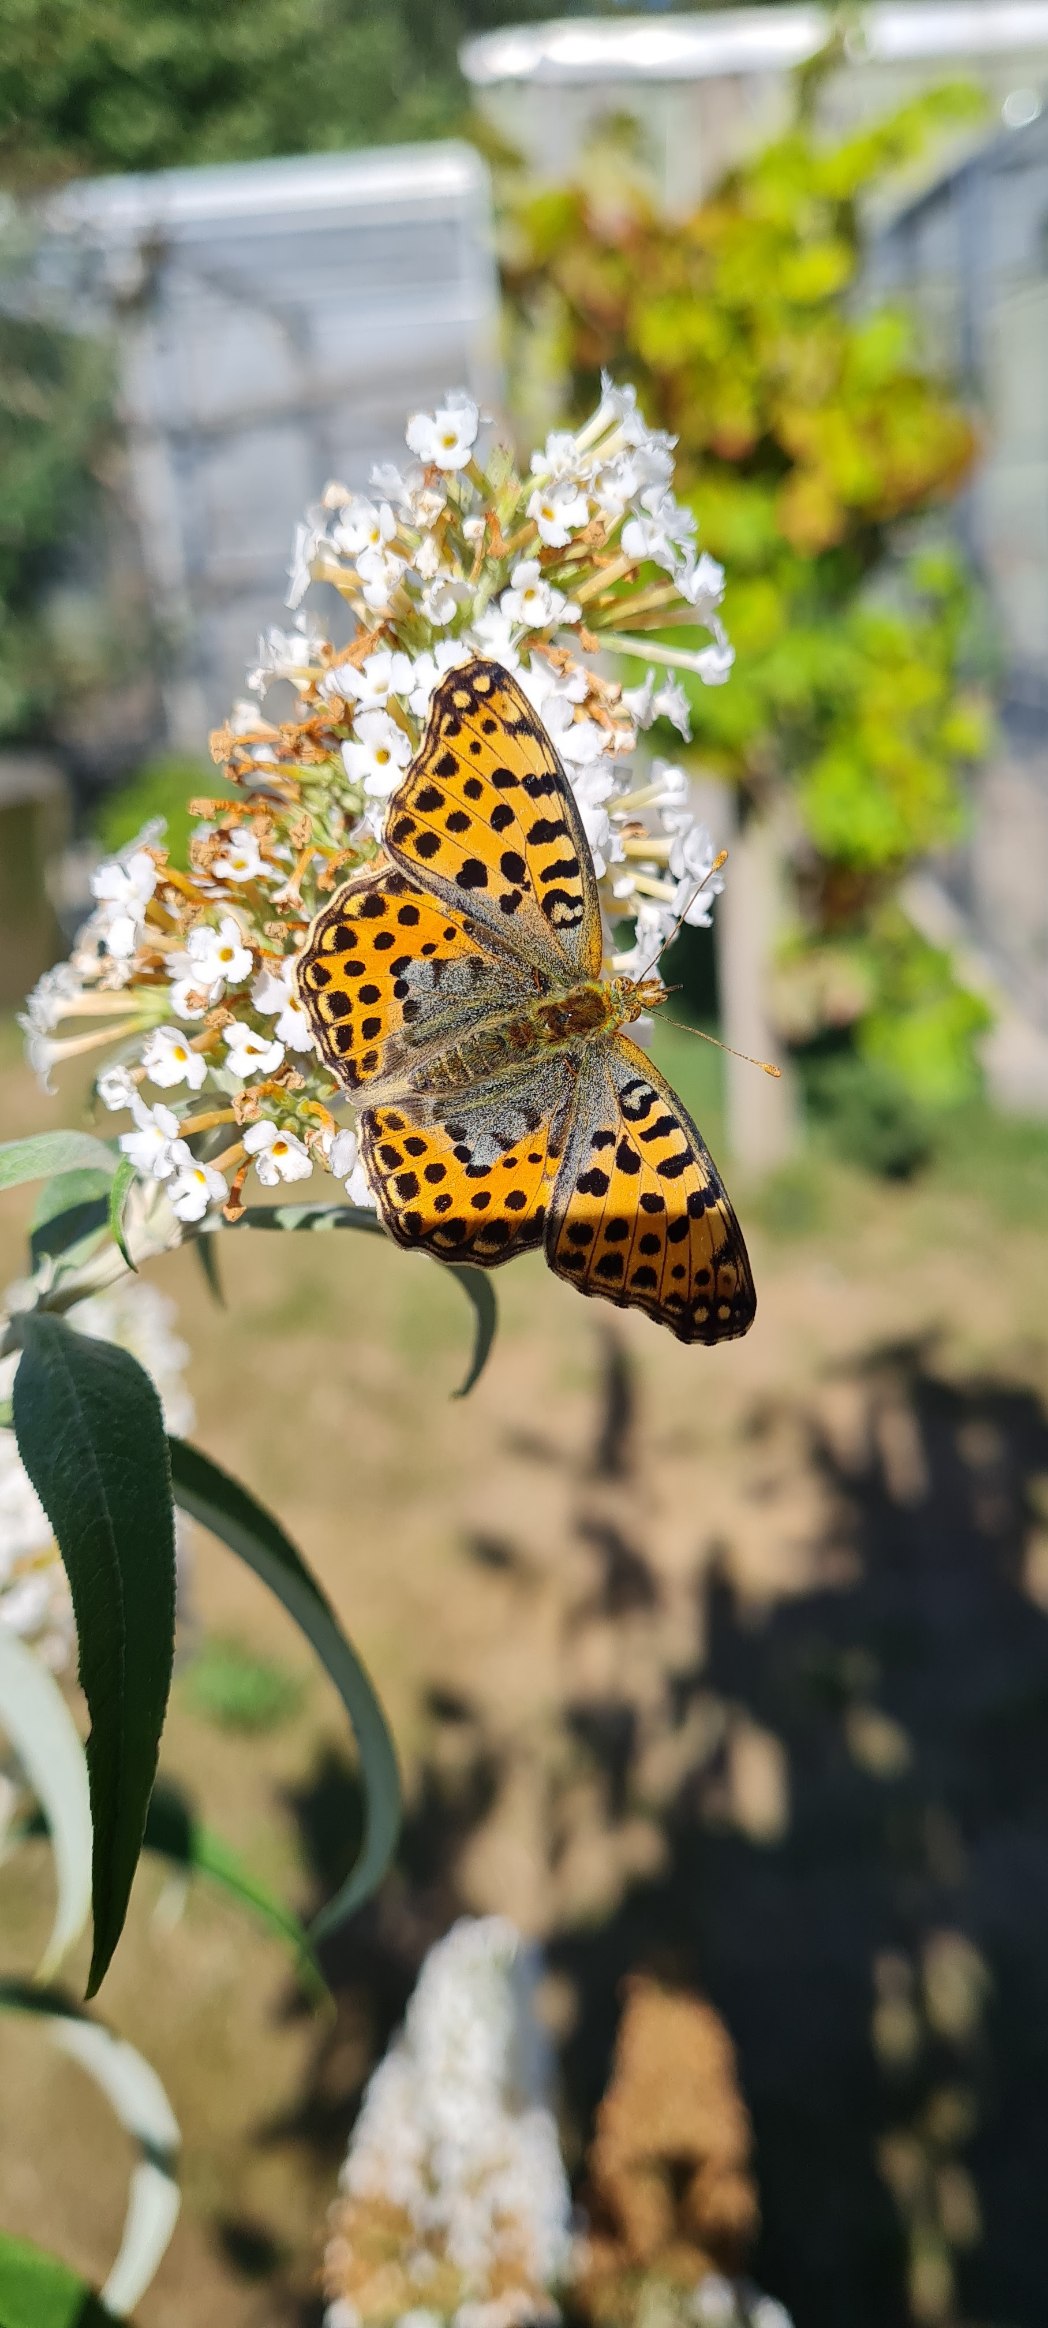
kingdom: Animalia
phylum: Arthropoda
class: Insecta
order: Lepidoptera
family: Nymphalidae
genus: Issoria
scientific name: Issoria lathonia
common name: Storplettet perlemorsommerfugl
